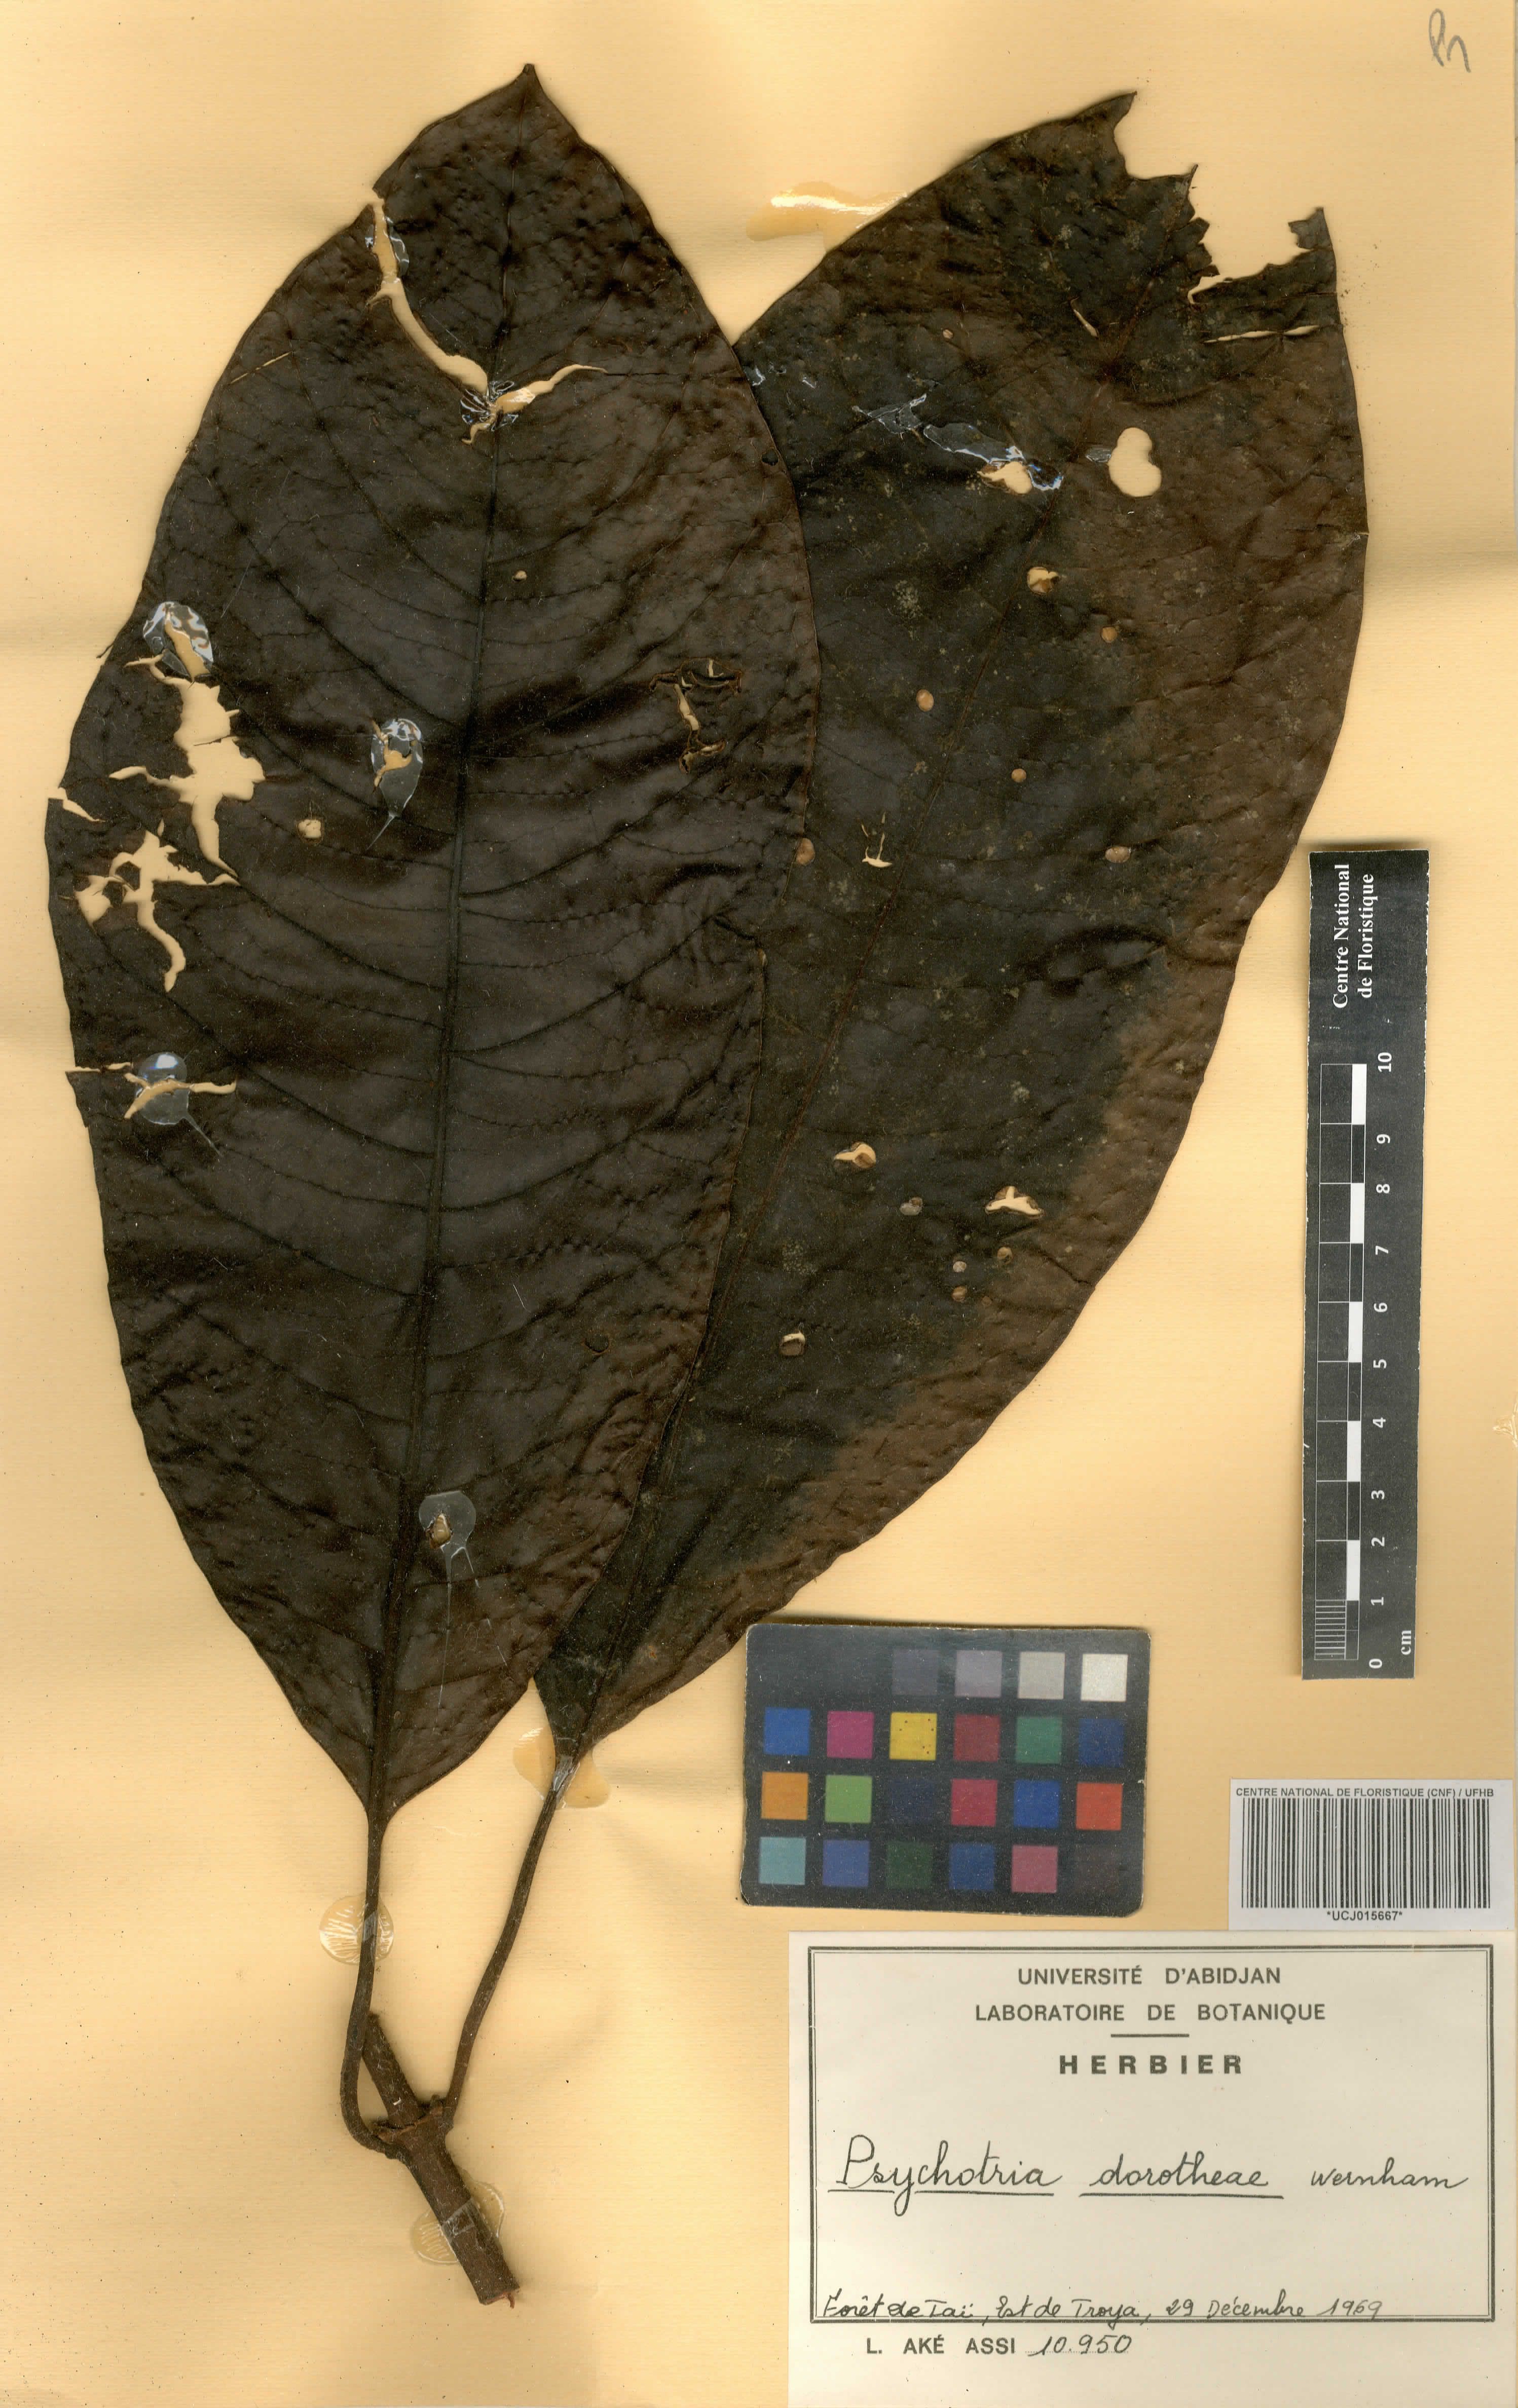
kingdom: Plantae
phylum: Tracheophyta
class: Magnoliopsida
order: Gentianales
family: Rubiaceae
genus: Psychotria
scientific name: Psychotria dorotheae
